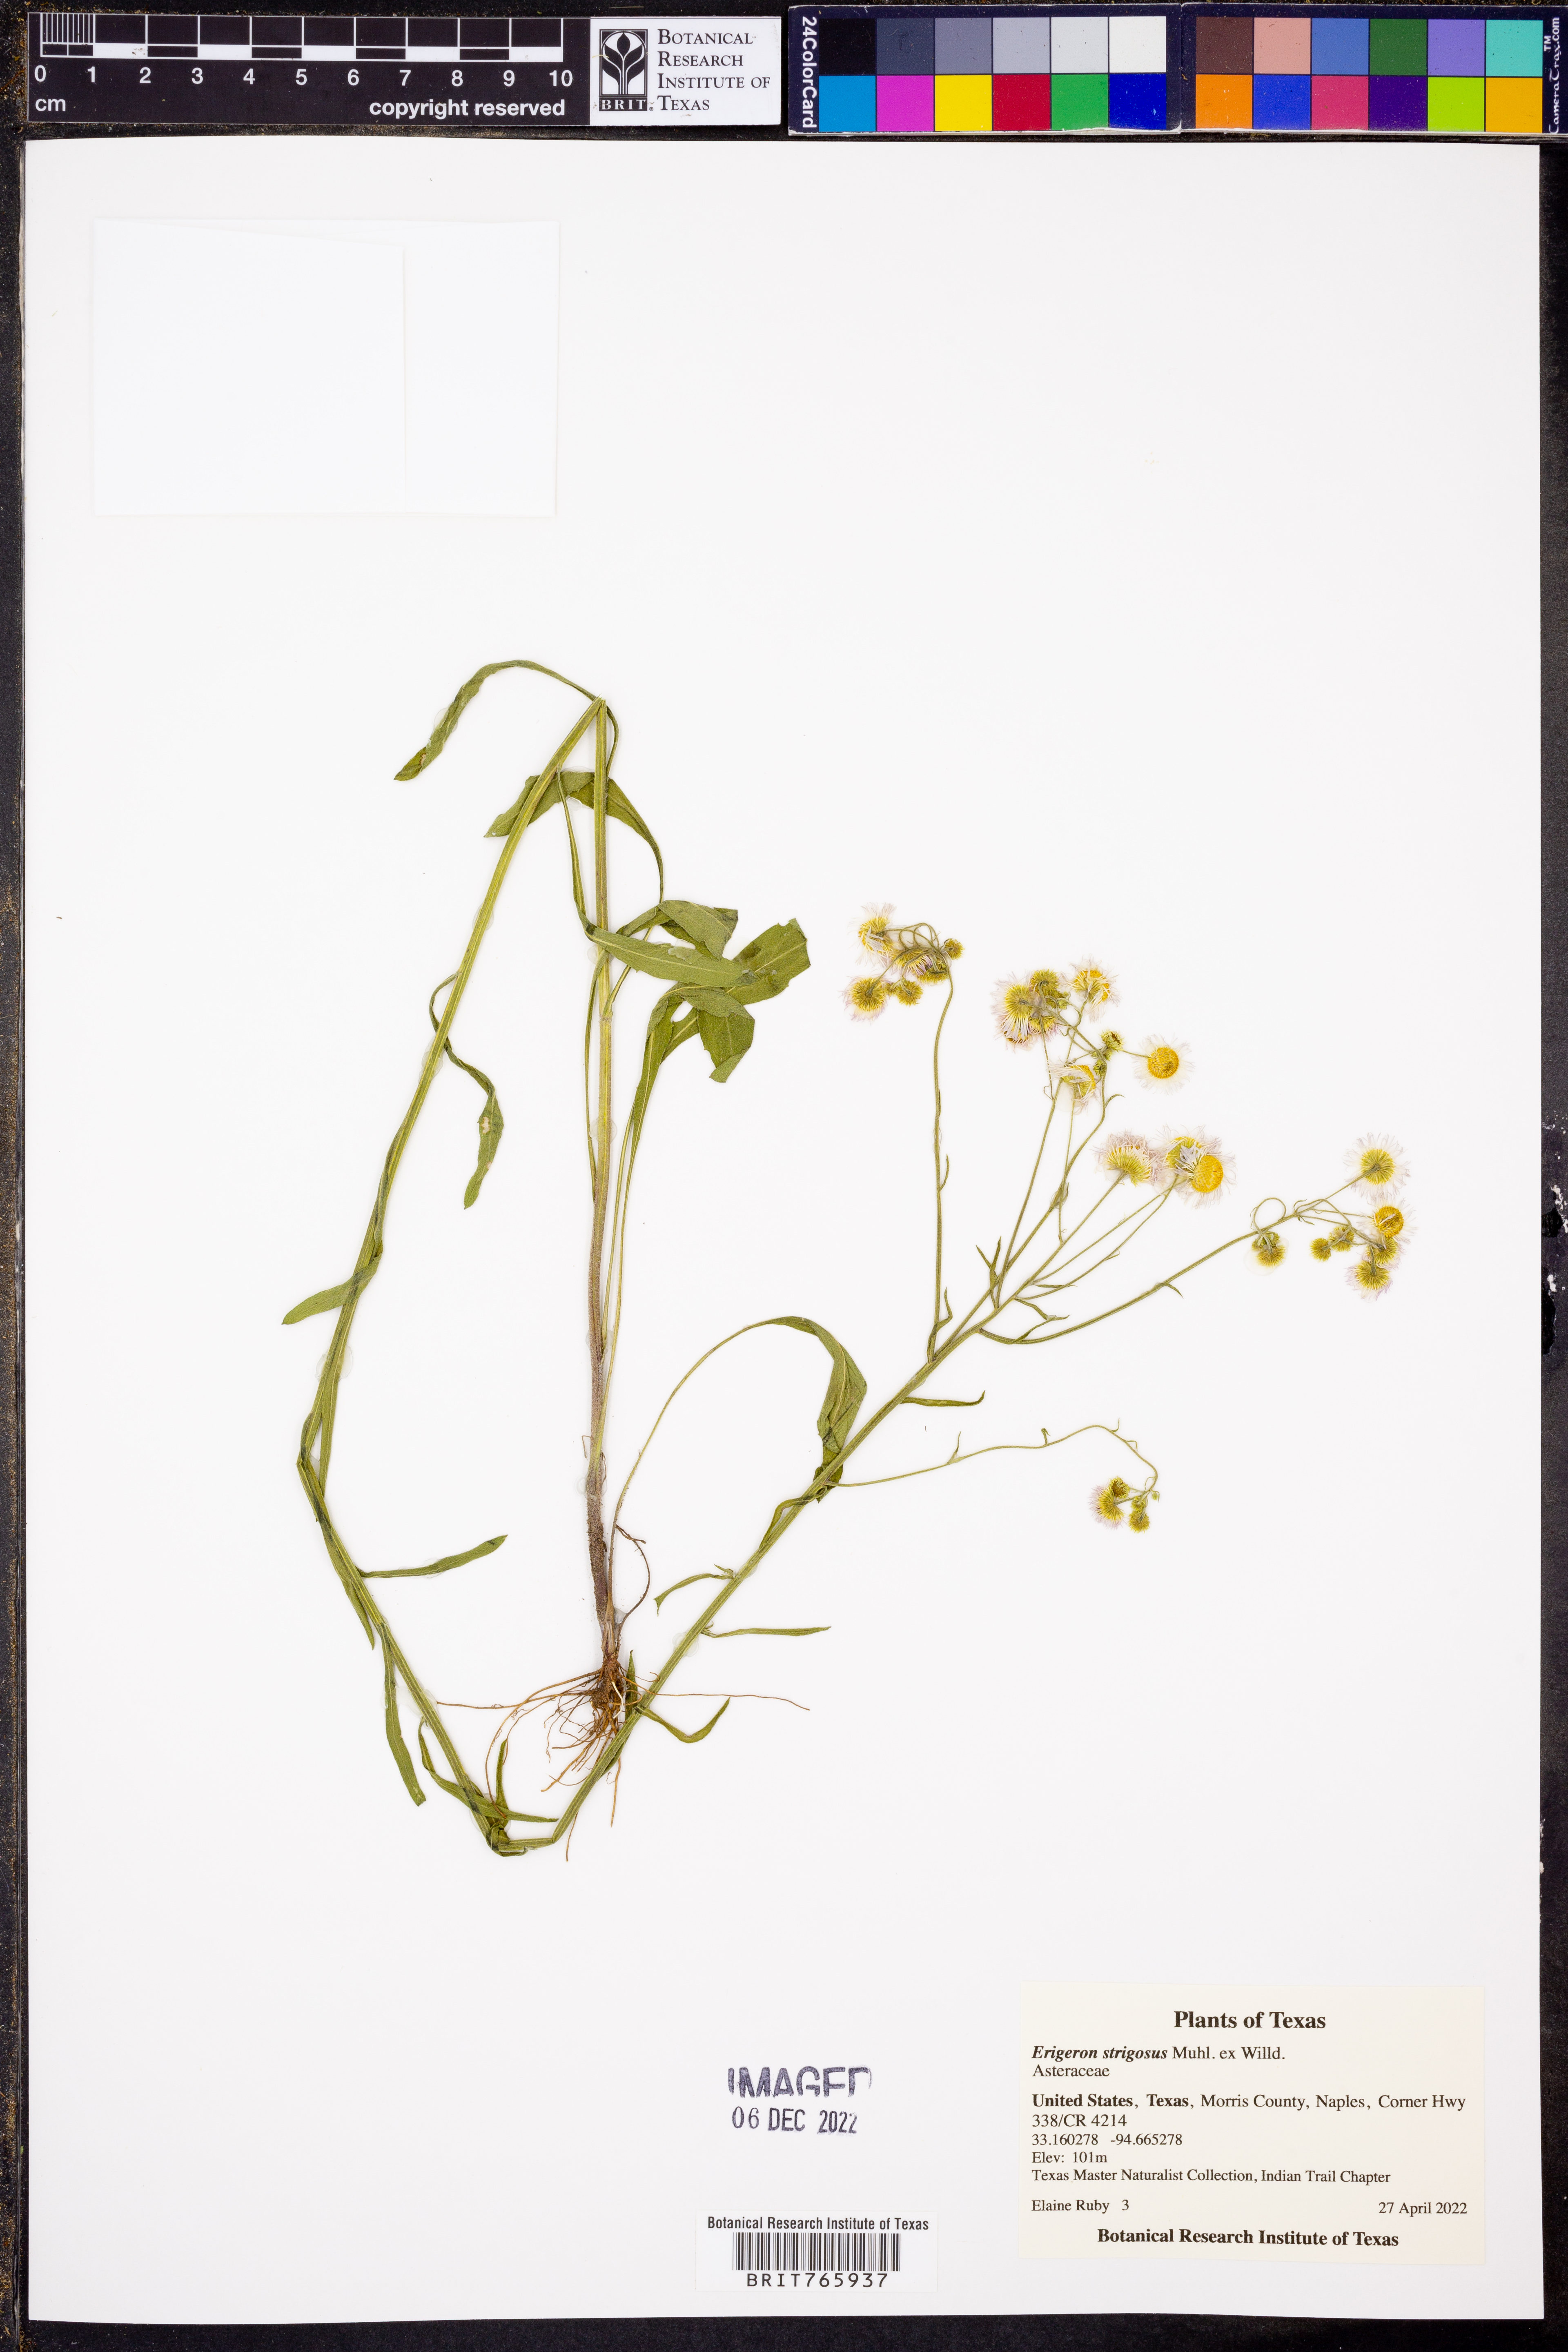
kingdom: Plantae
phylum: Tracheophyta
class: Magnoliopsida
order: Asterales
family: Asteraceae
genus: Erigeron
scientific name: Erigeron strigosus
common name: Common eastern fleabane
